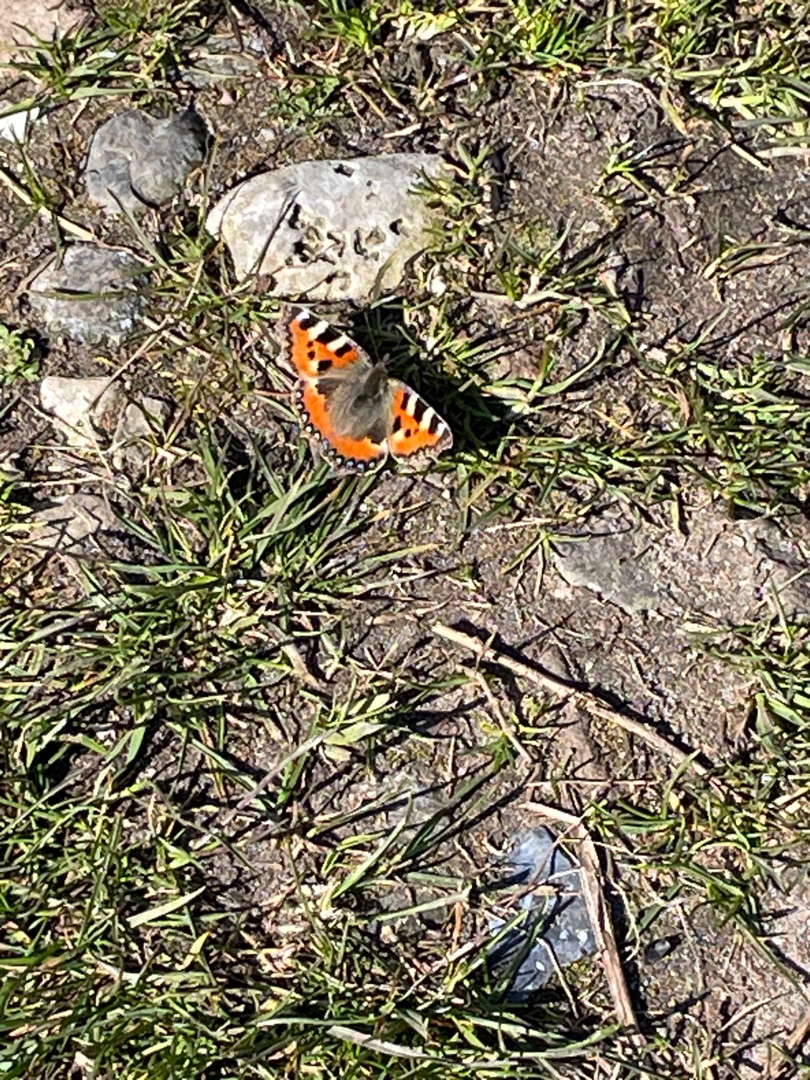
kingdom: Animalia
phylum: Arthropoda
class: Insecta
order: Lepidoptera
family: Nymphalidae
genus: Aglais
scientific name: Aglais urticae
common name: Nældens takvinge
